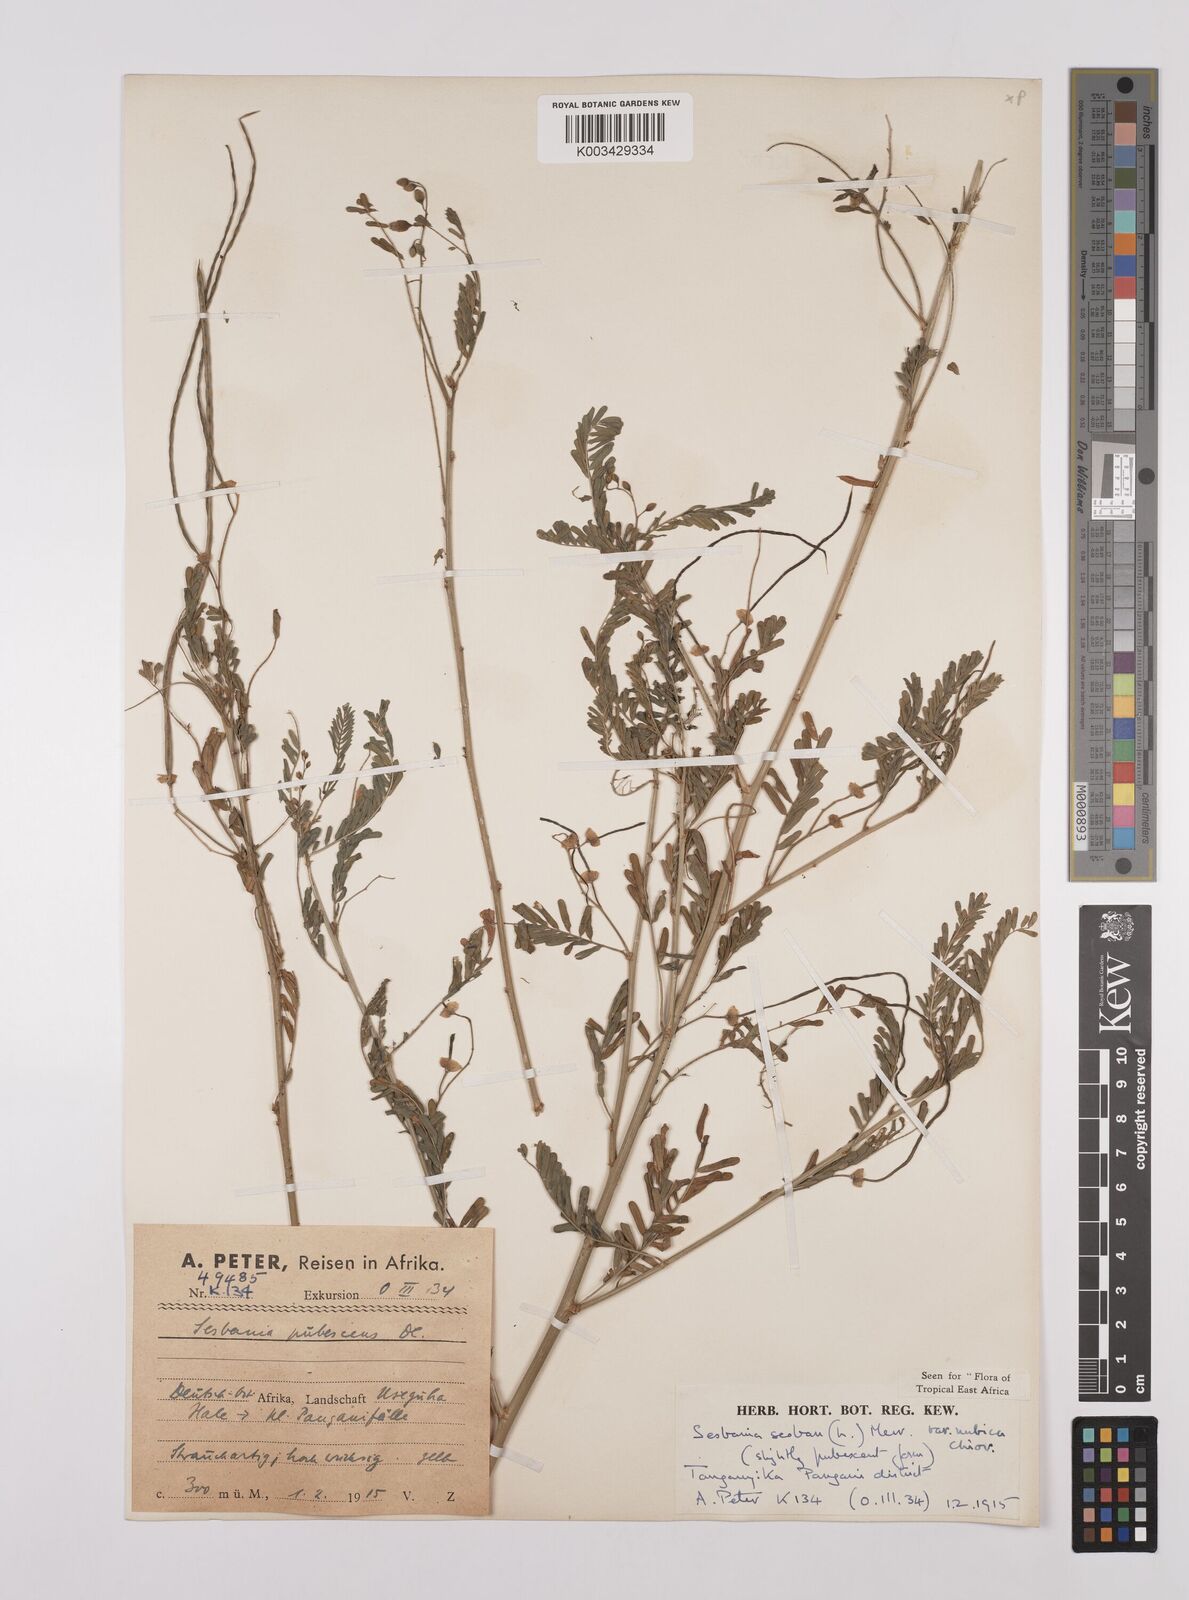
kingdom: Plantae
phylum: Tracheophyta
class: Magnoliopsida
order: Fabales
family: Fabaceae
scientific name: Fabaceae
